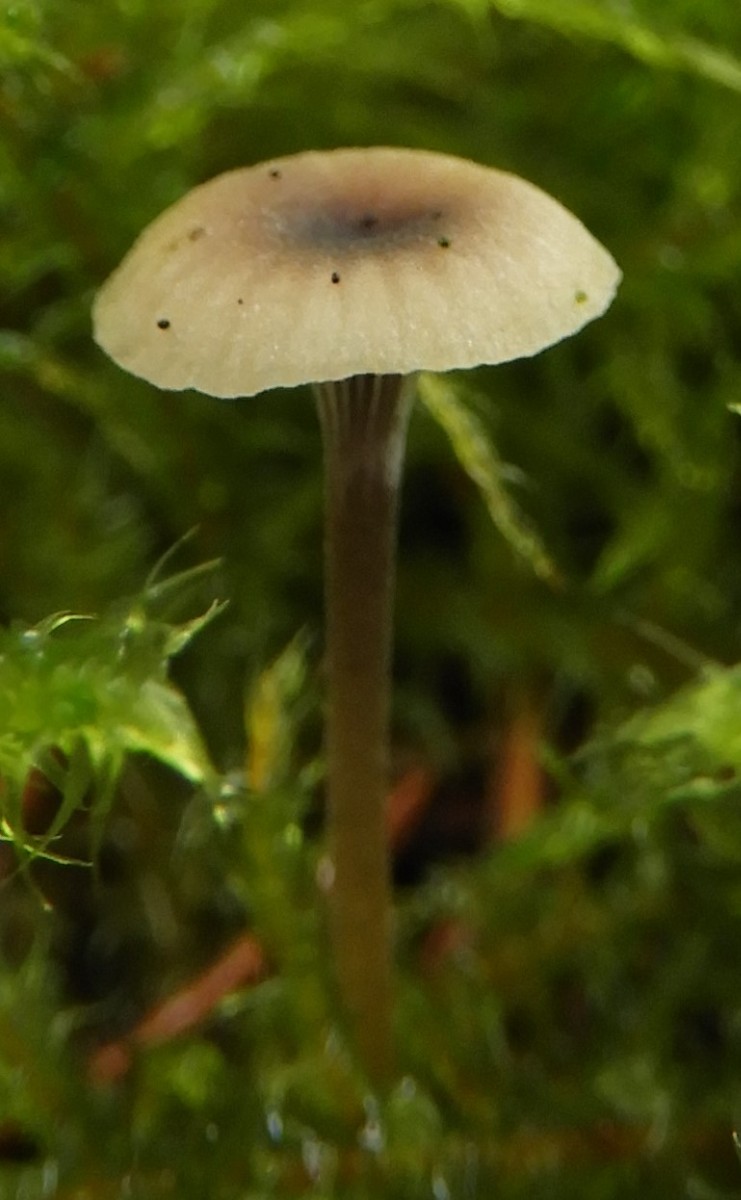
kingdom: Fungi
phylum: Basidiomycota
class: Agaricomycetes
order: Hymenochaetales
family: Rickenellaceae
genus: Rickenella
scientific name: Rickenella swartzii
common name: finstokket mosnavlehat
